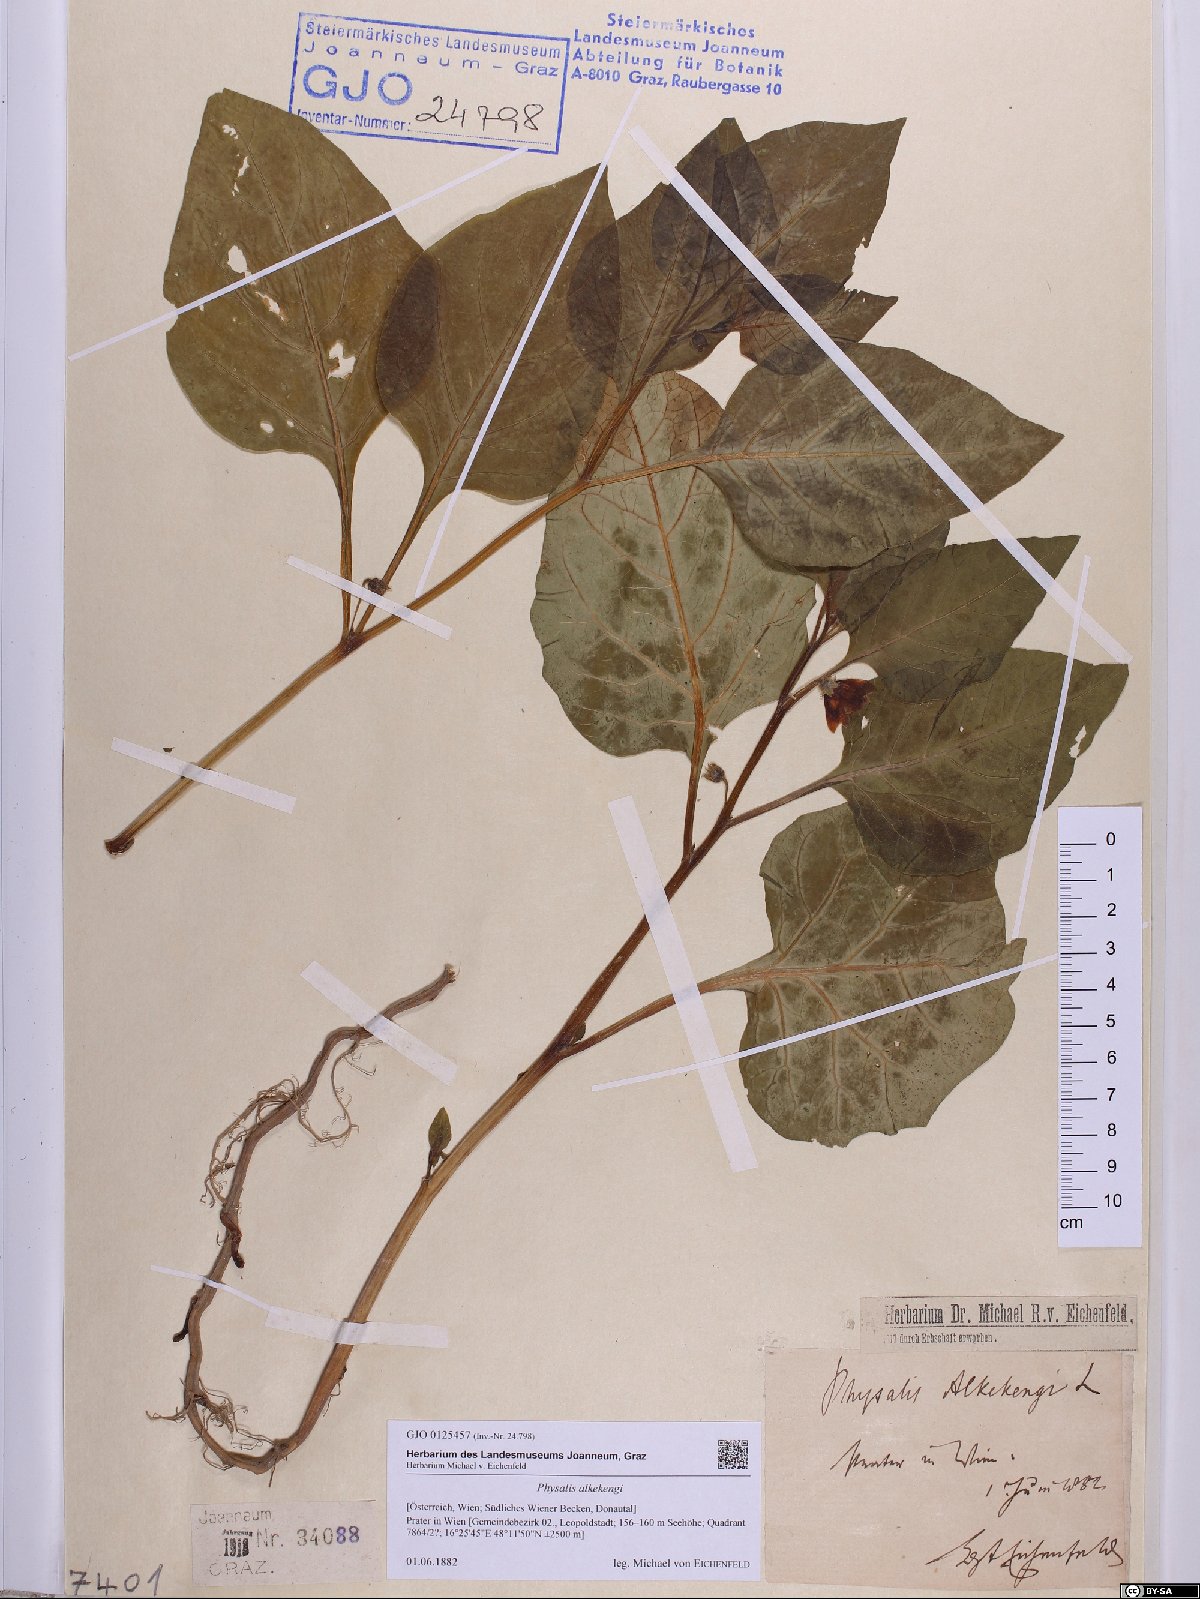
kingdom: Plantae
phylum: Tracheophyta
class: Magnoliopsida
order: Solanales
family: Solanaceae
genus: Alkekengi
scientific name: Alkekengi officinarum
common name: Japanese-lantern
